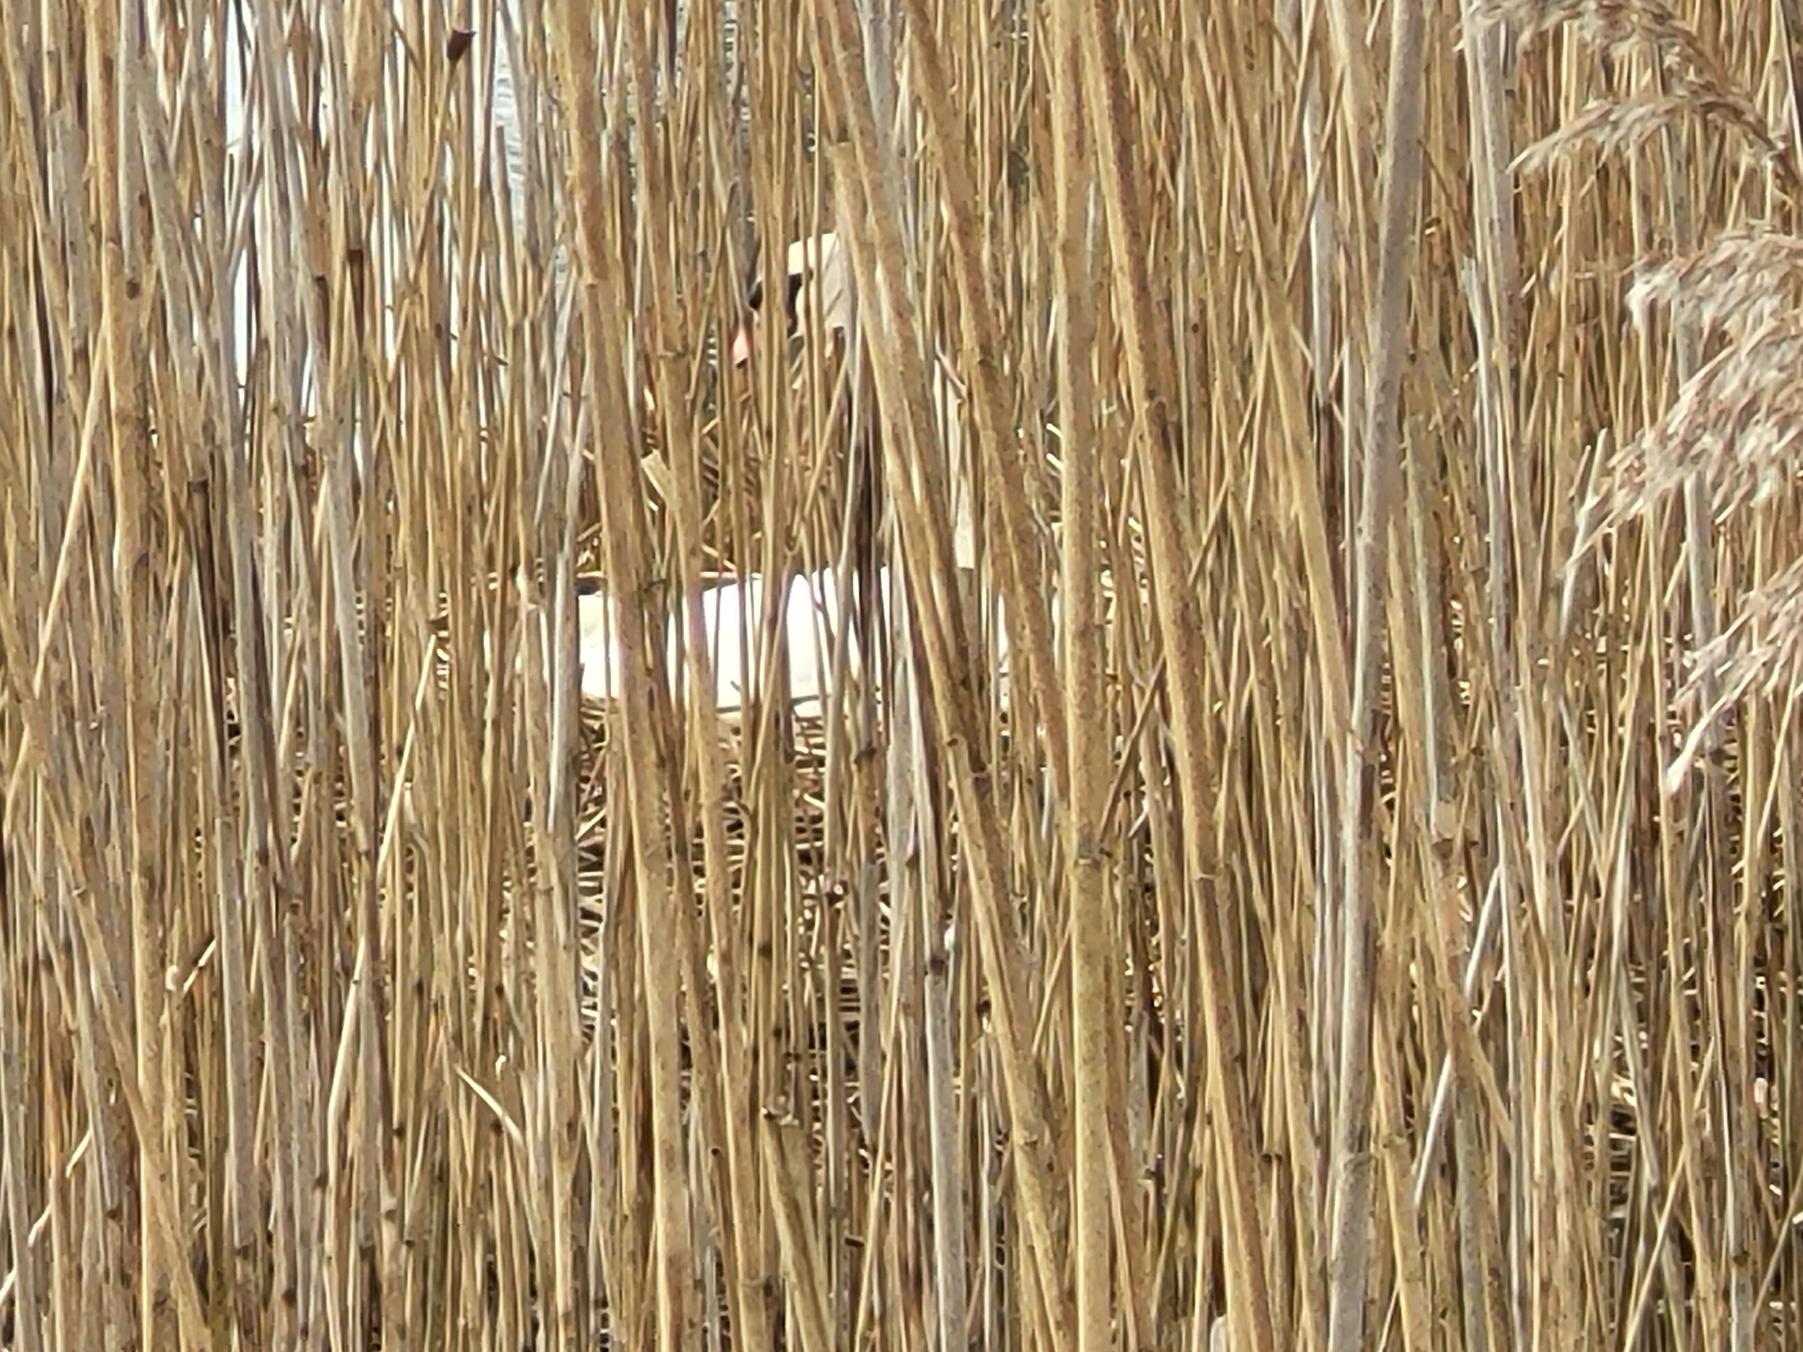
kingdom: Animalia
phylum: Chordata
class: Aves
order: Anseriformes
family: Anatidae
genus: Cygnus
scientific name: Cygnus olor
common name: Knopsvane
